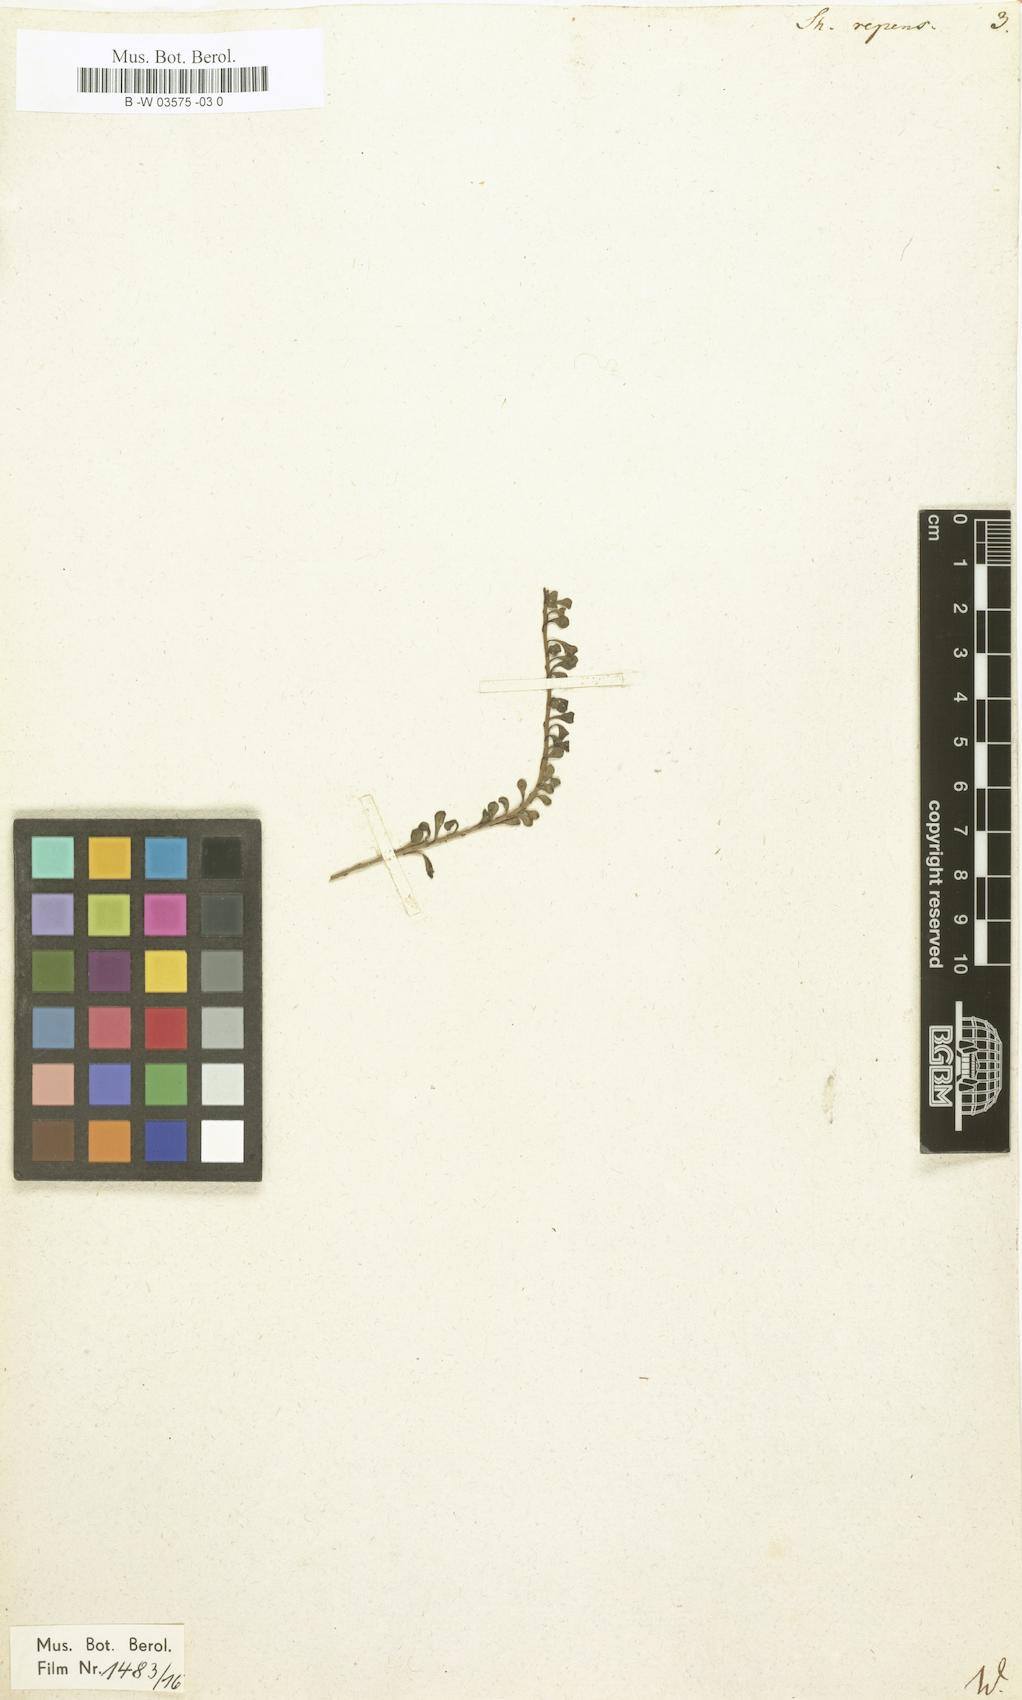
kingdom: Plantae
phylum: Tracheophyta
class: Magnoliopsida
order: Ericales
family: Primulaceae
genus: Samolus
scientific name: Samolus repens
